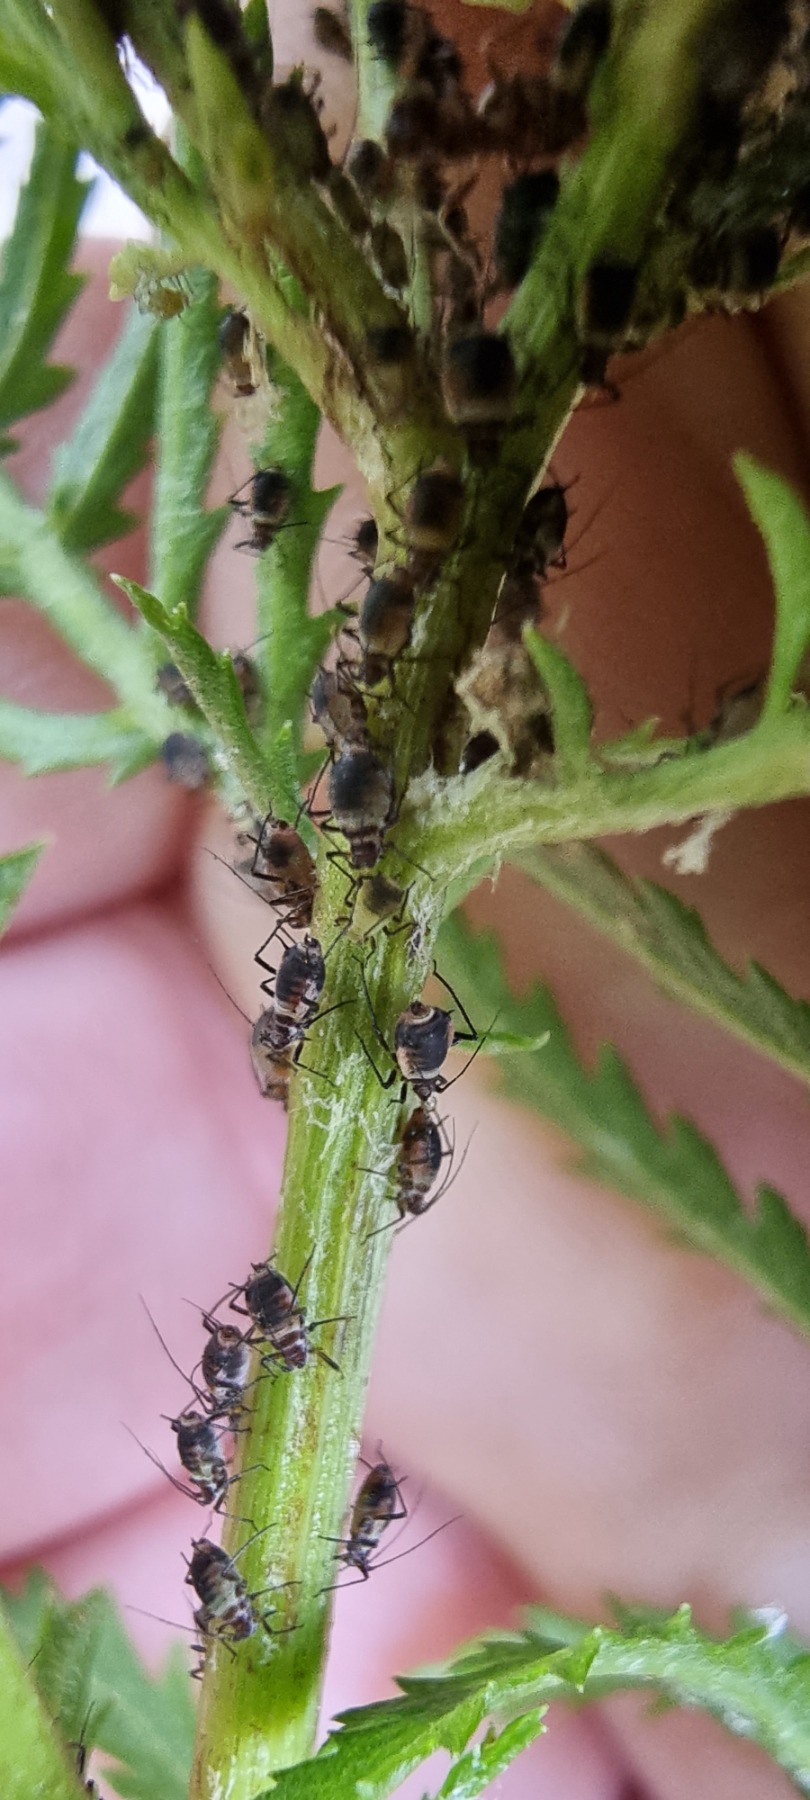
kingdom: Animalia
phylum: Arthropoda
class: Insecta
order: Hemiptera
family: Aphididae
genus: Metopeurum
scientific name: Metopeurum fuscoviride
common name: Mørk rejnfanbladlus
